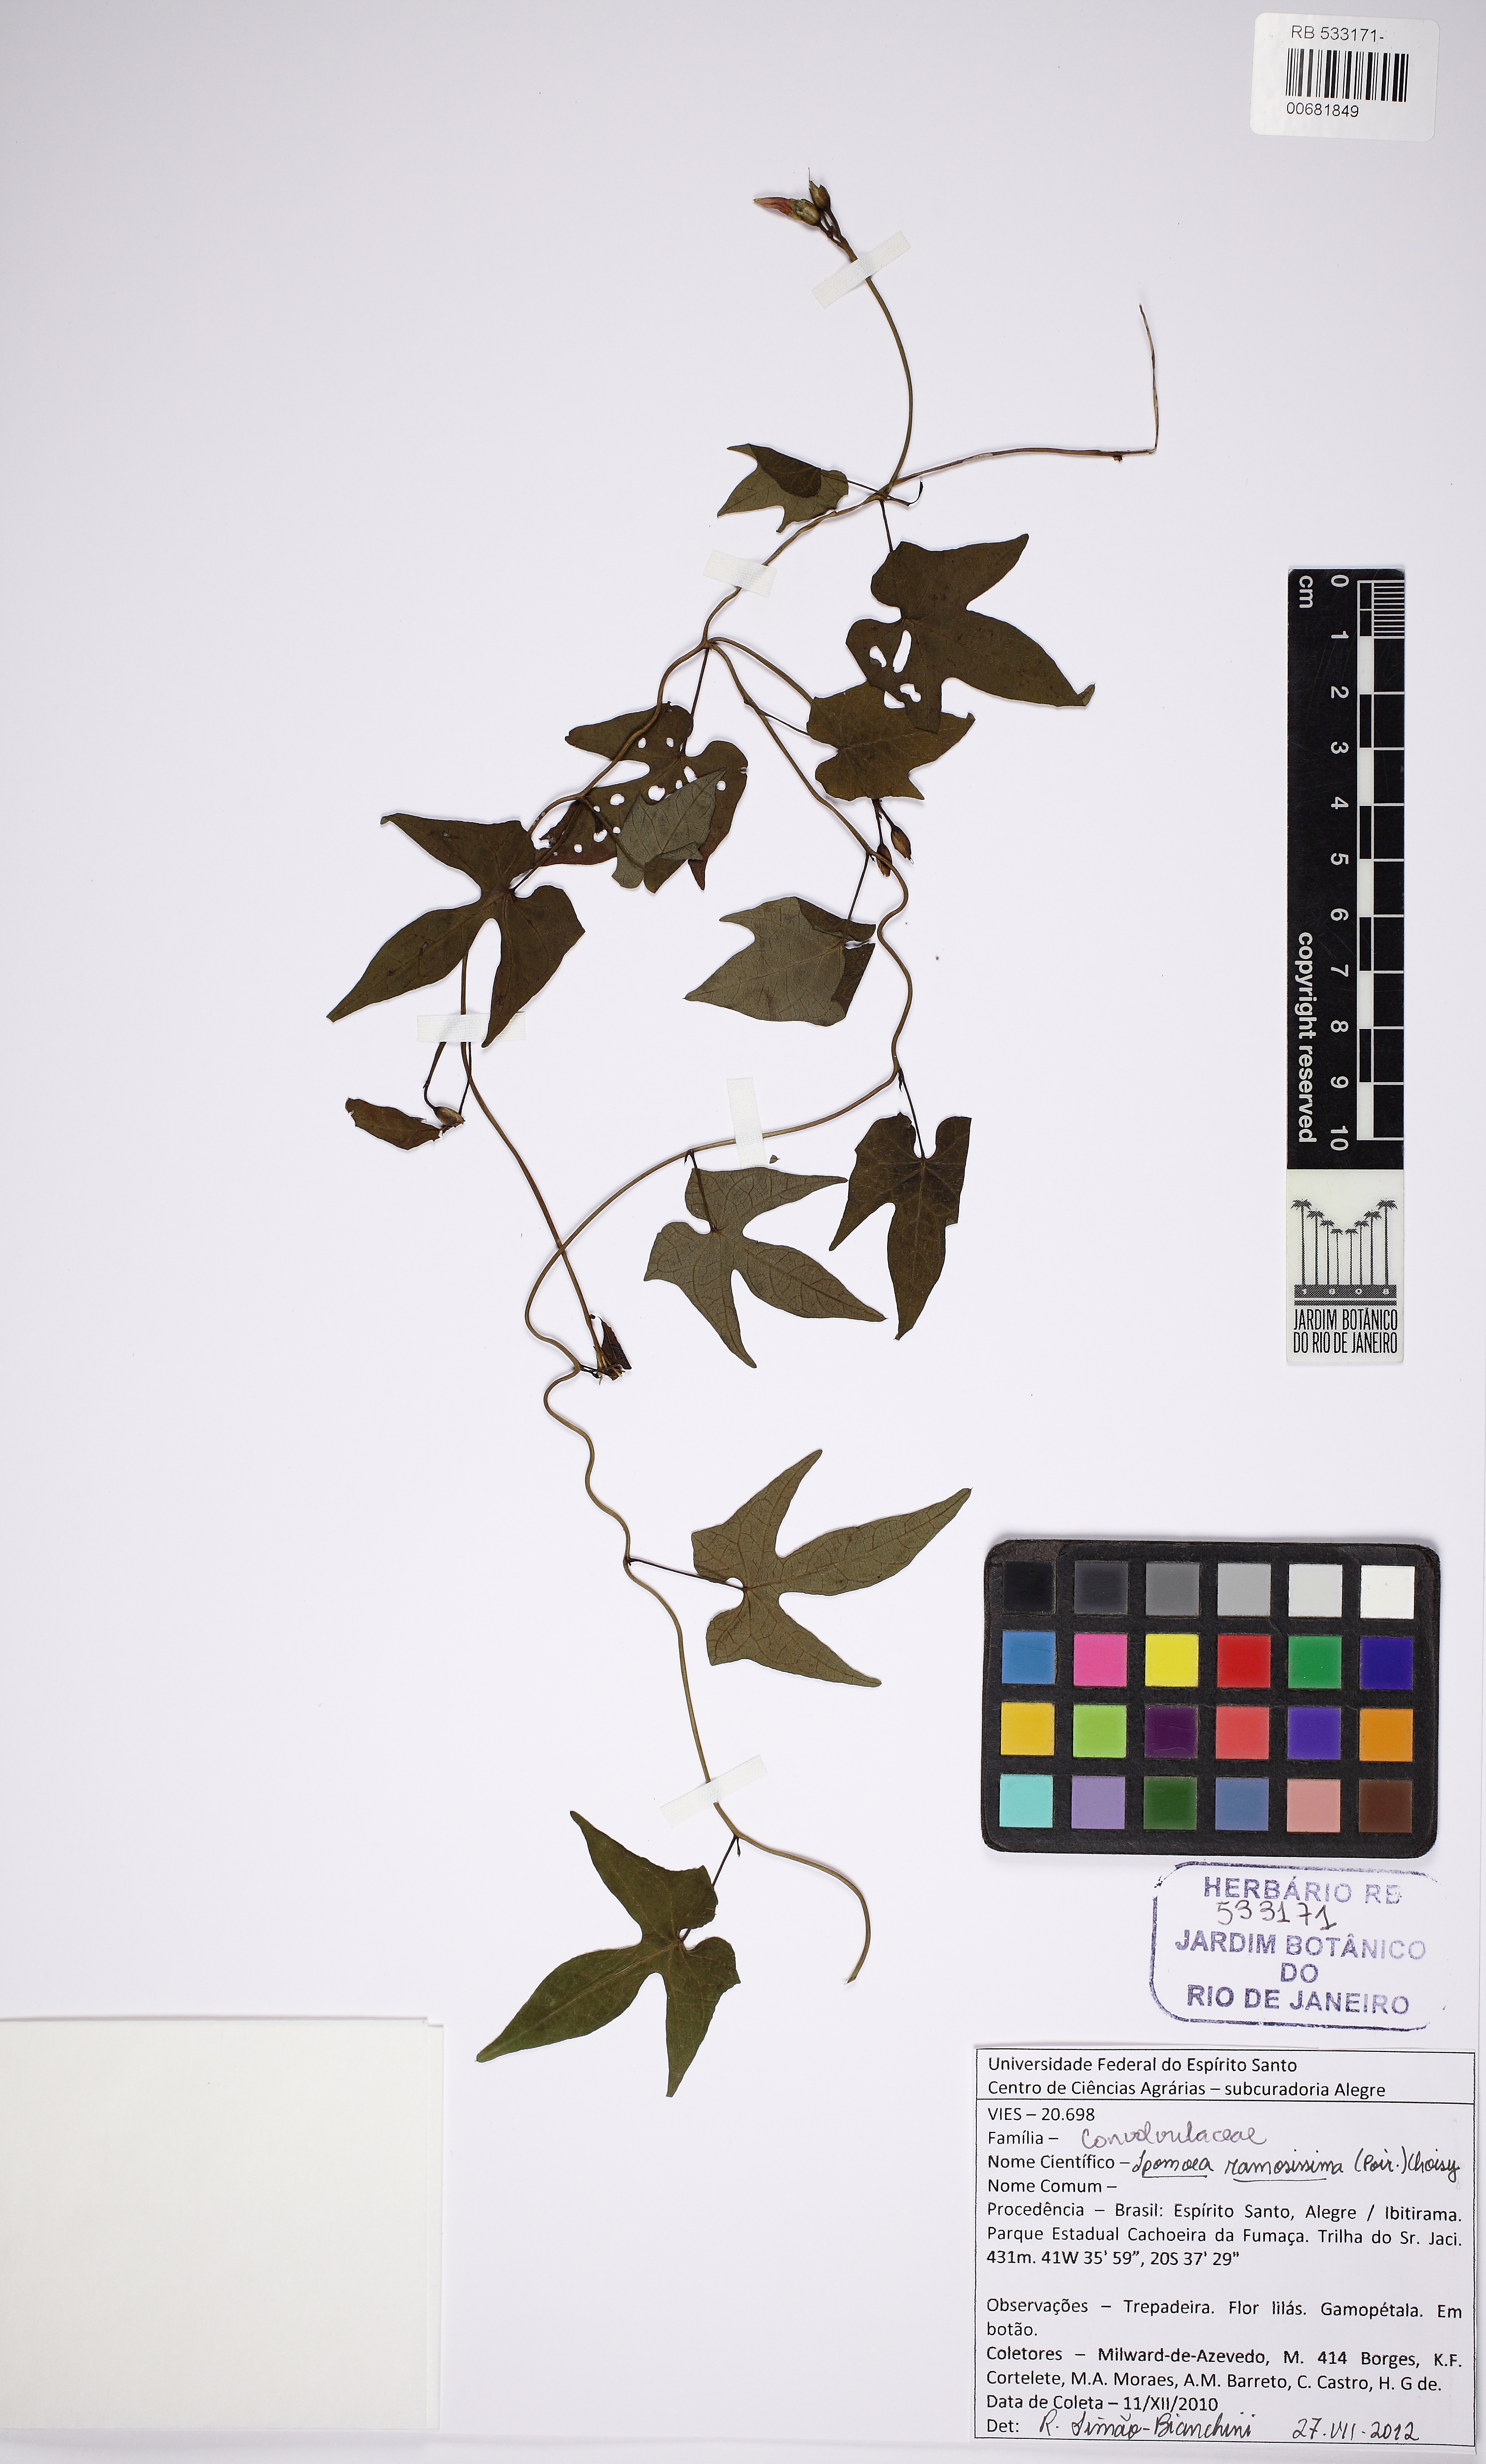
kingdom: Plantae
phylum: Tracheophyta
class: Magnoliopsida
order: Solanales
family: Convolvulaceae
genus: Ipomoea
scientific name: Ipomoea ramosissima
